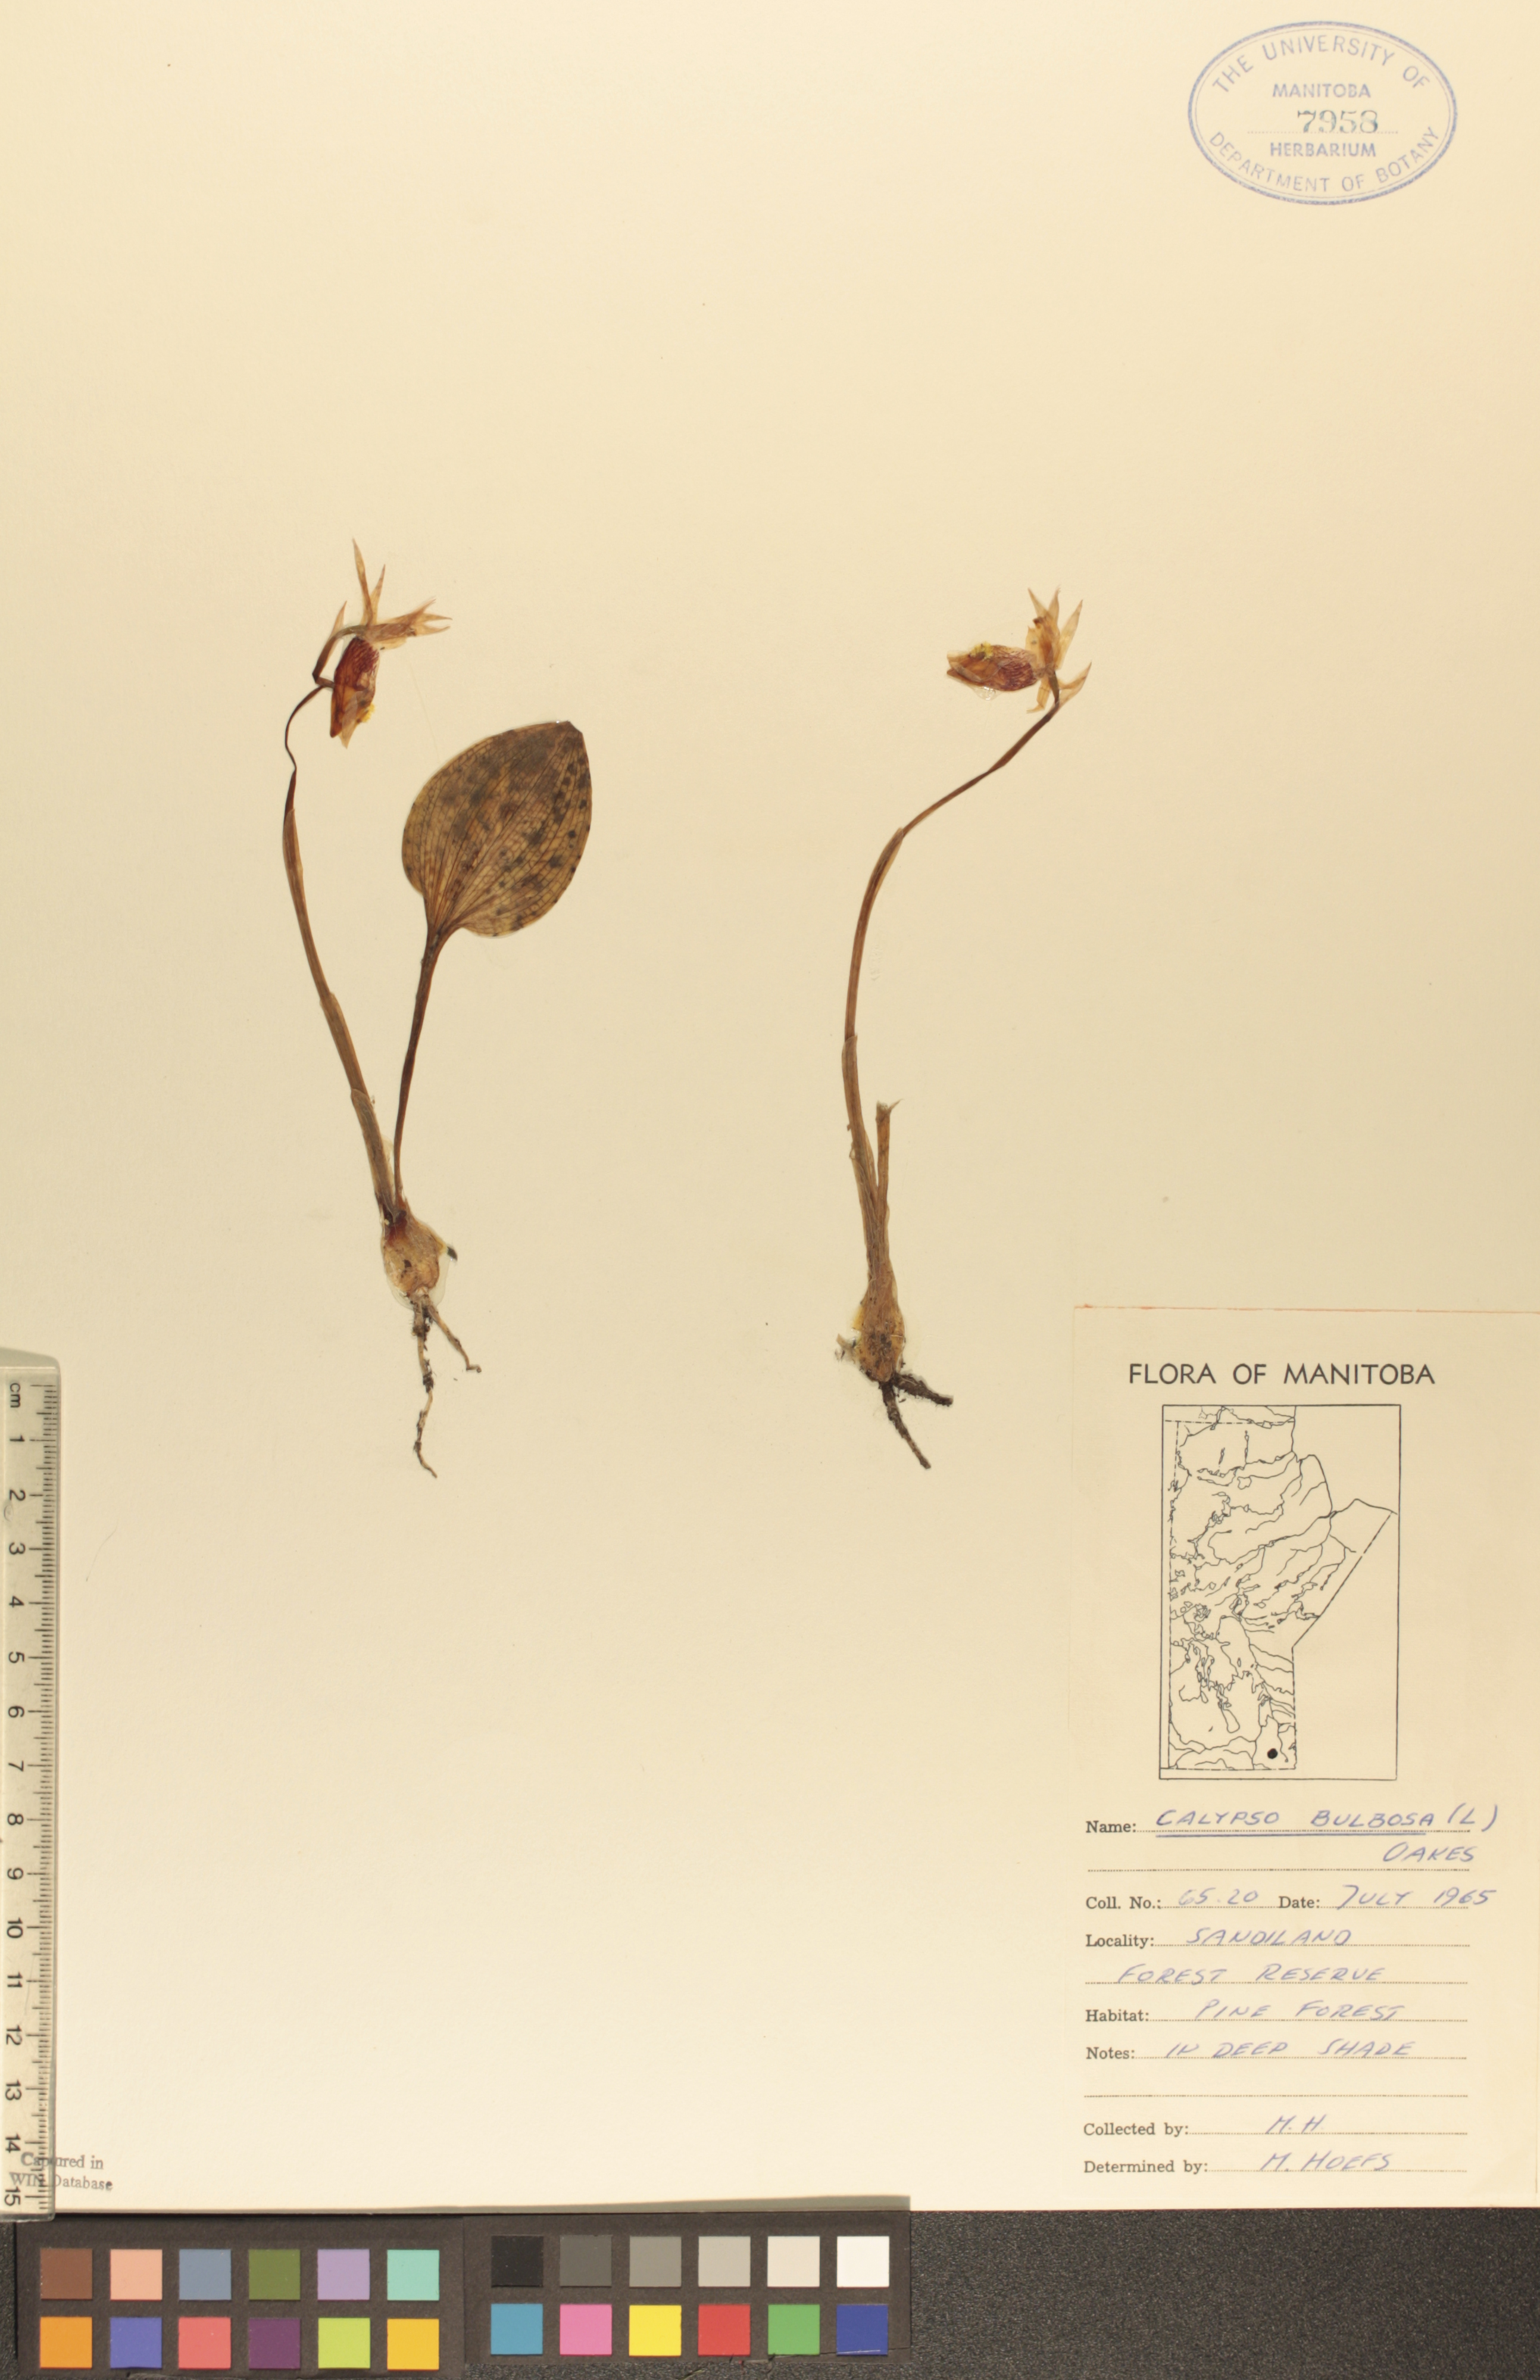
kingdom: Plantae
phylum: Tracheophyta
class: Liliopsida
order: Asparagales
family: Orchidaceae
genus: Calypso
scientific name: Calypso bulbosa
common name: Calypso
